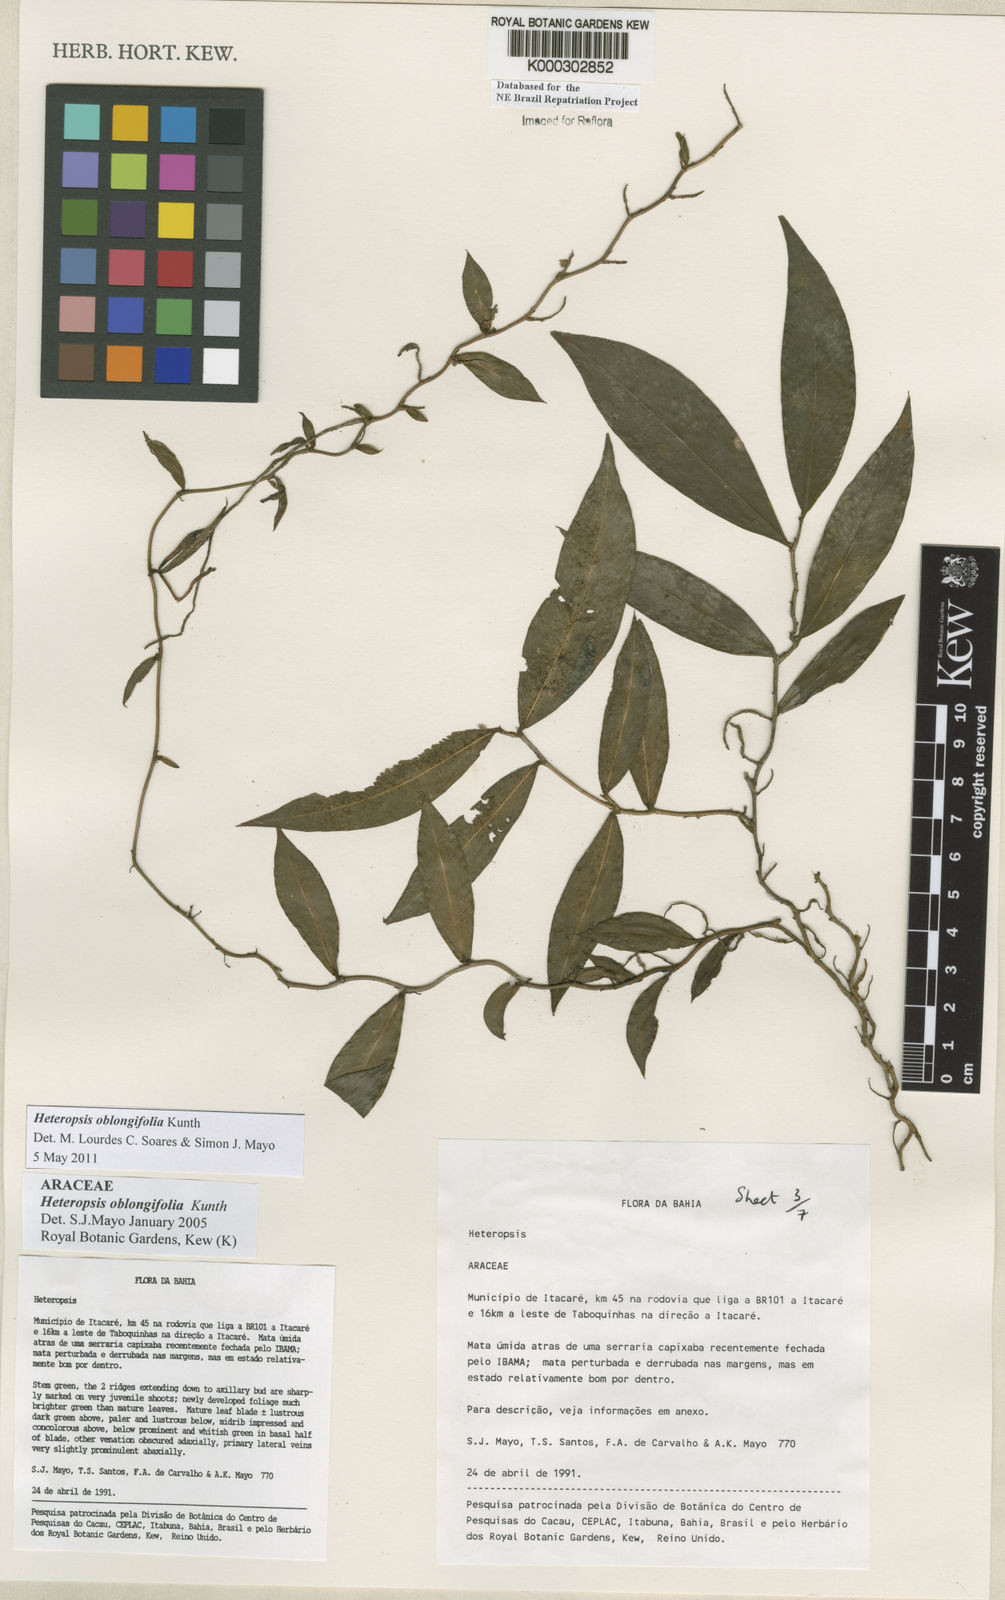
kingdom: Plantae
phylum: Tracheophyta
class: Liliopsida
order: Alismatales
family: Araceae
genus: Heteropsis
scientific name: Heteropsis oblongifolia
